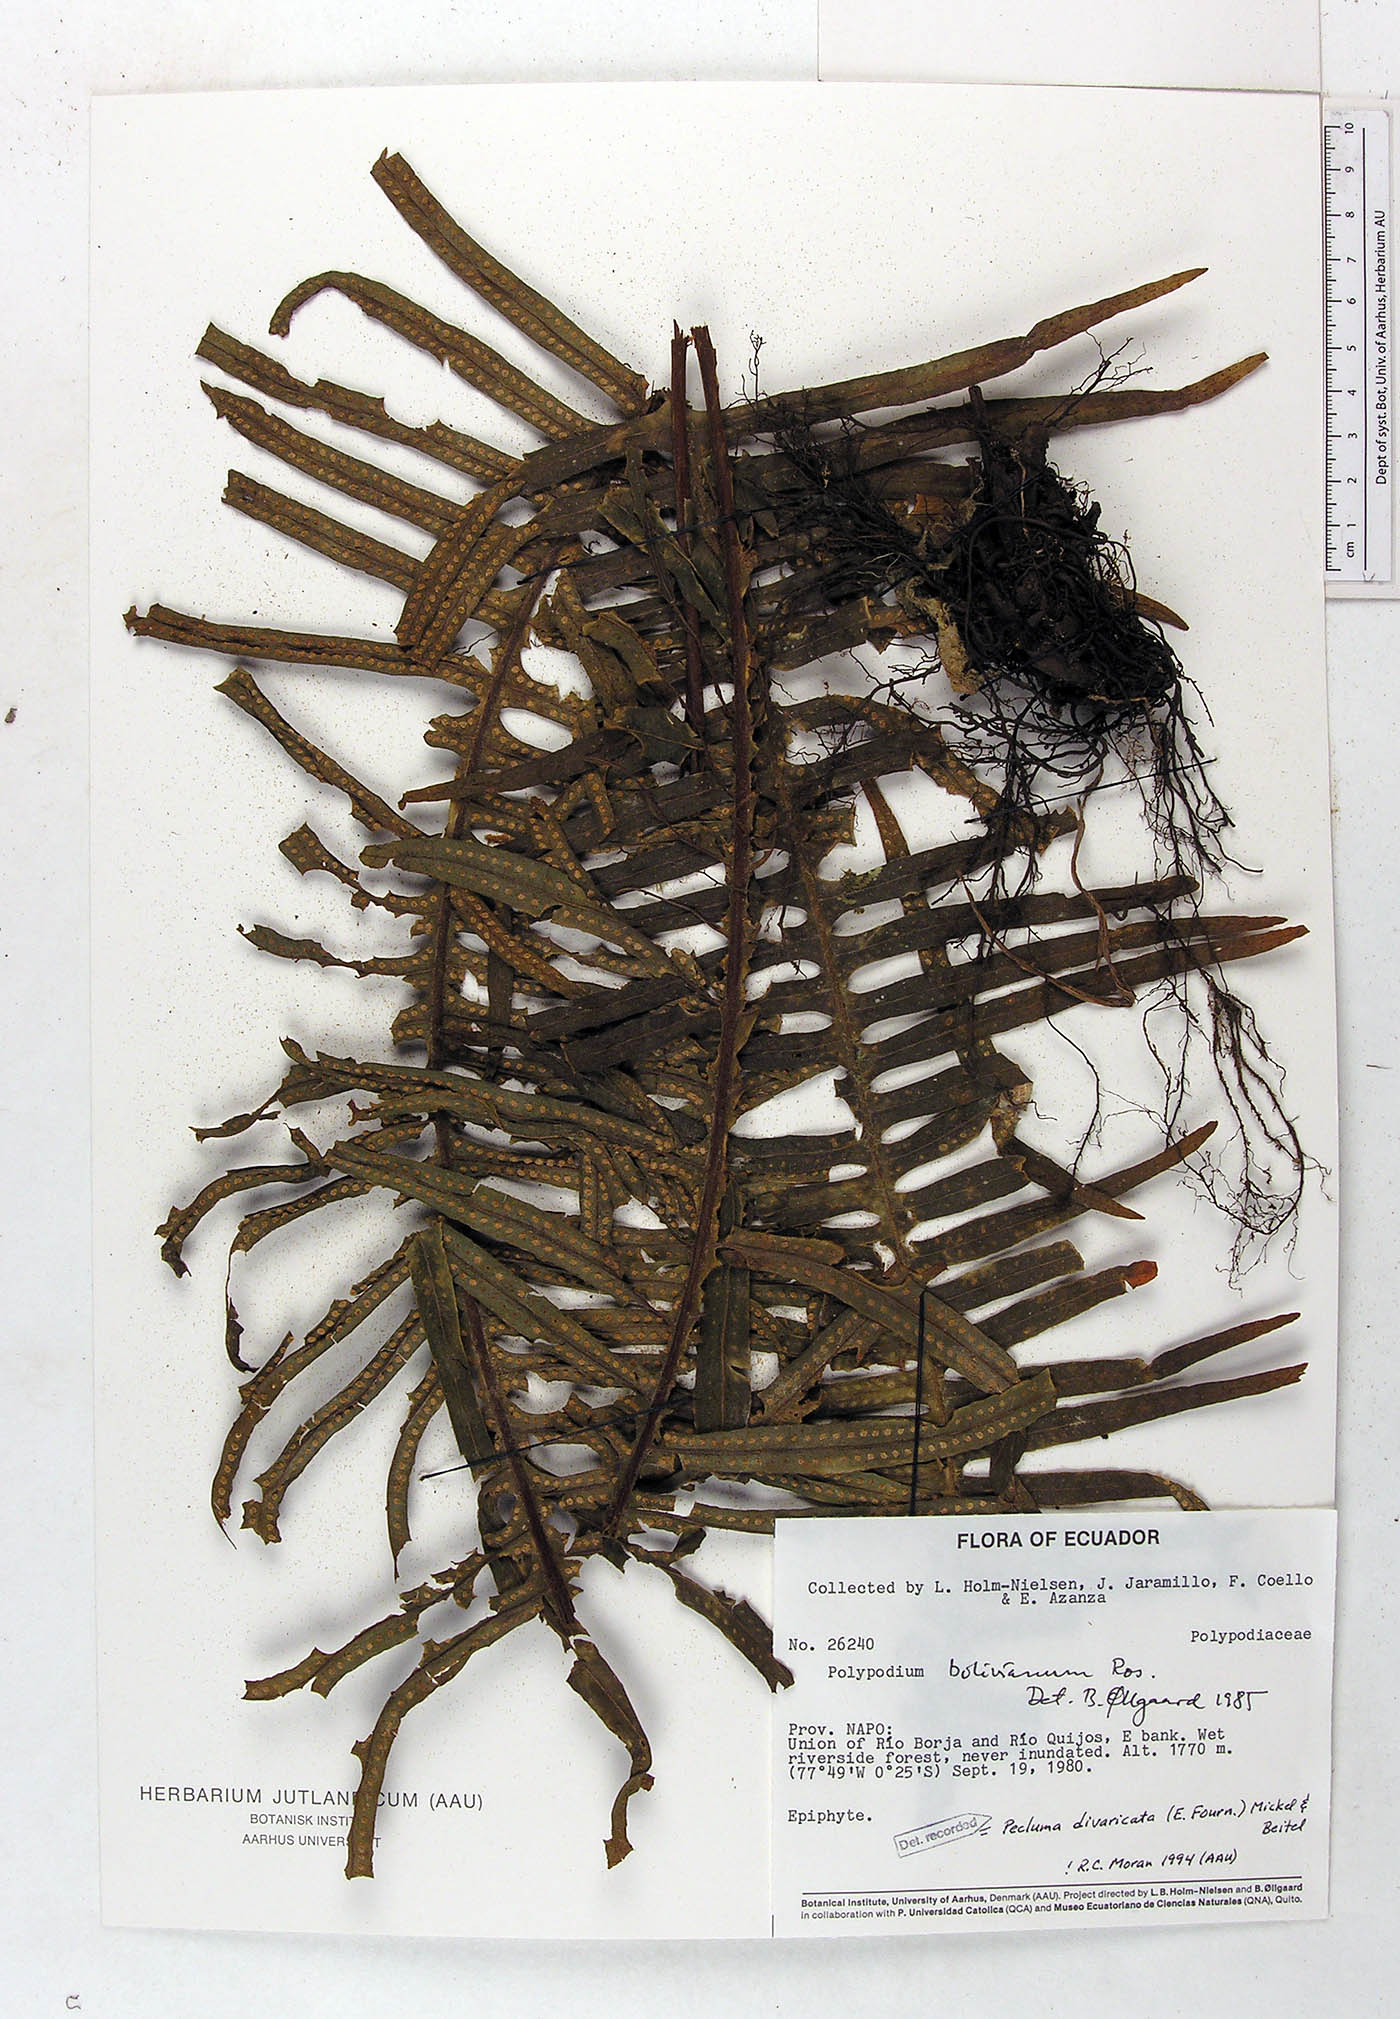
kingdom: Plantae
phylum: Tracheophyta
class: Polypodiopsida
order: Polypodiales
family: Polypodiaceae
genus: Pecluma
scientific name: Pecluma divaricata
